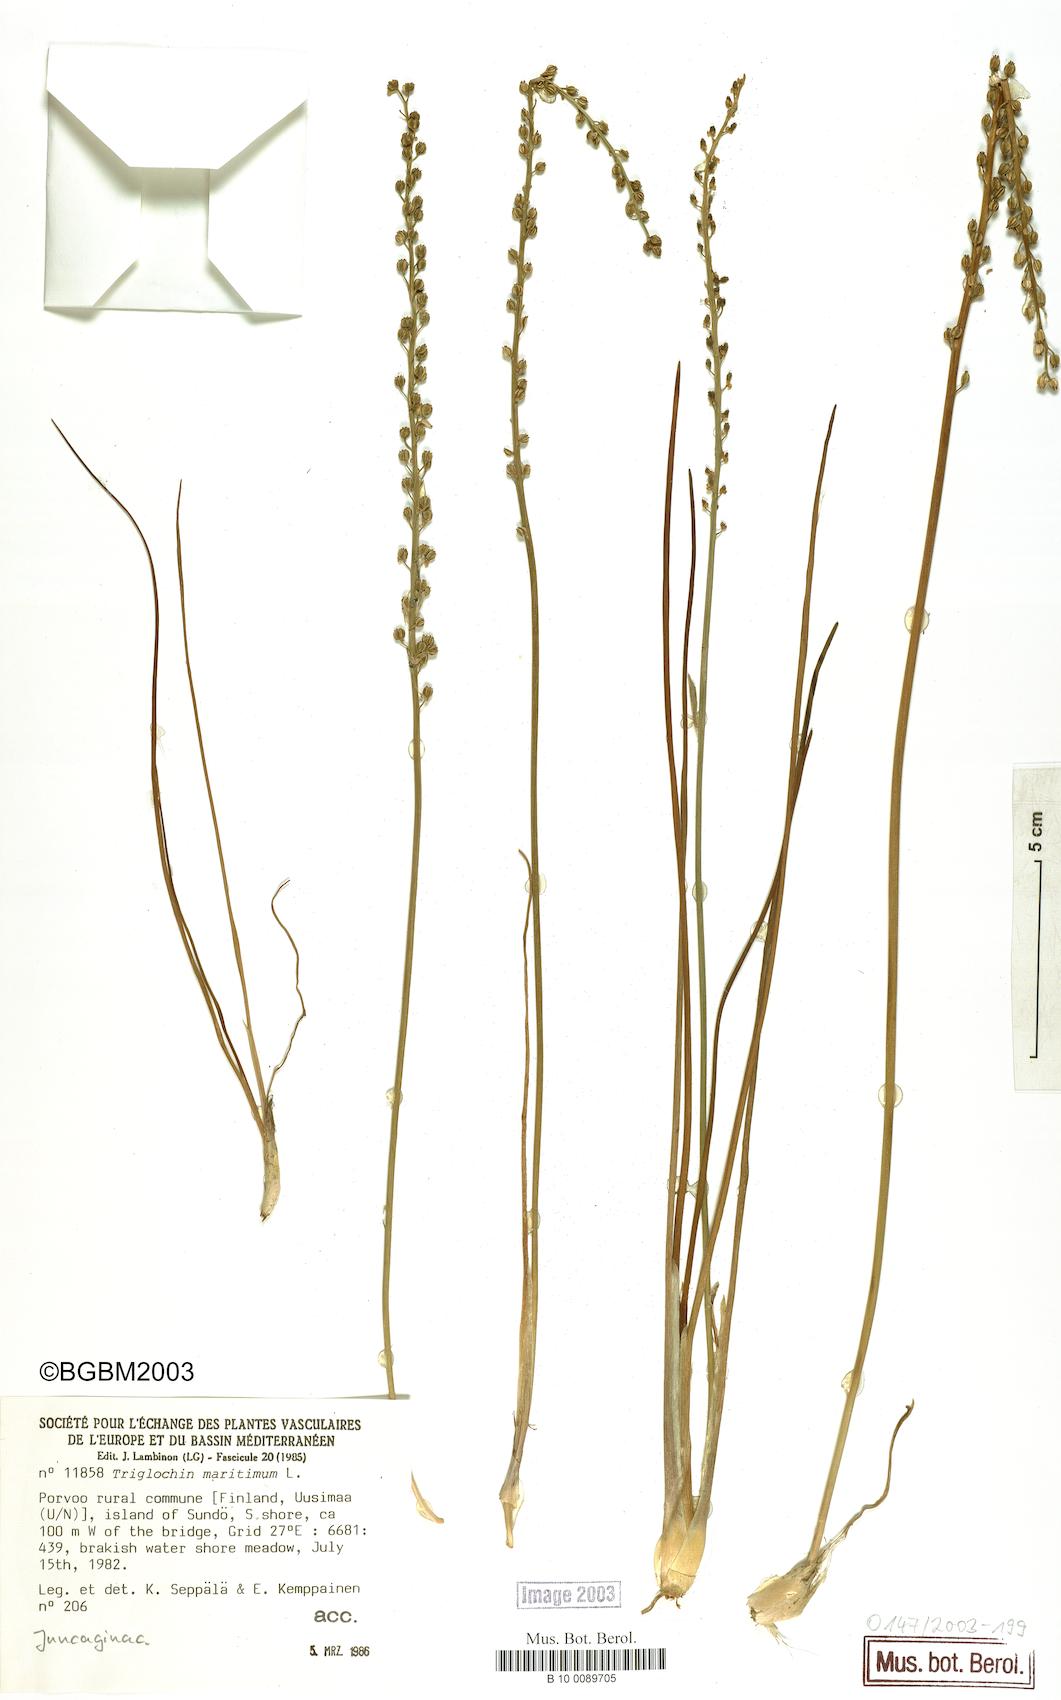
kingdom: Plantae
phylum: Tracheophyta
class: Liliopsida
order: Alismatales
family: Juncaginaceae
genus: Triglochin
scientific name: Triglochin maritima
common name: Sea arrowgrass
